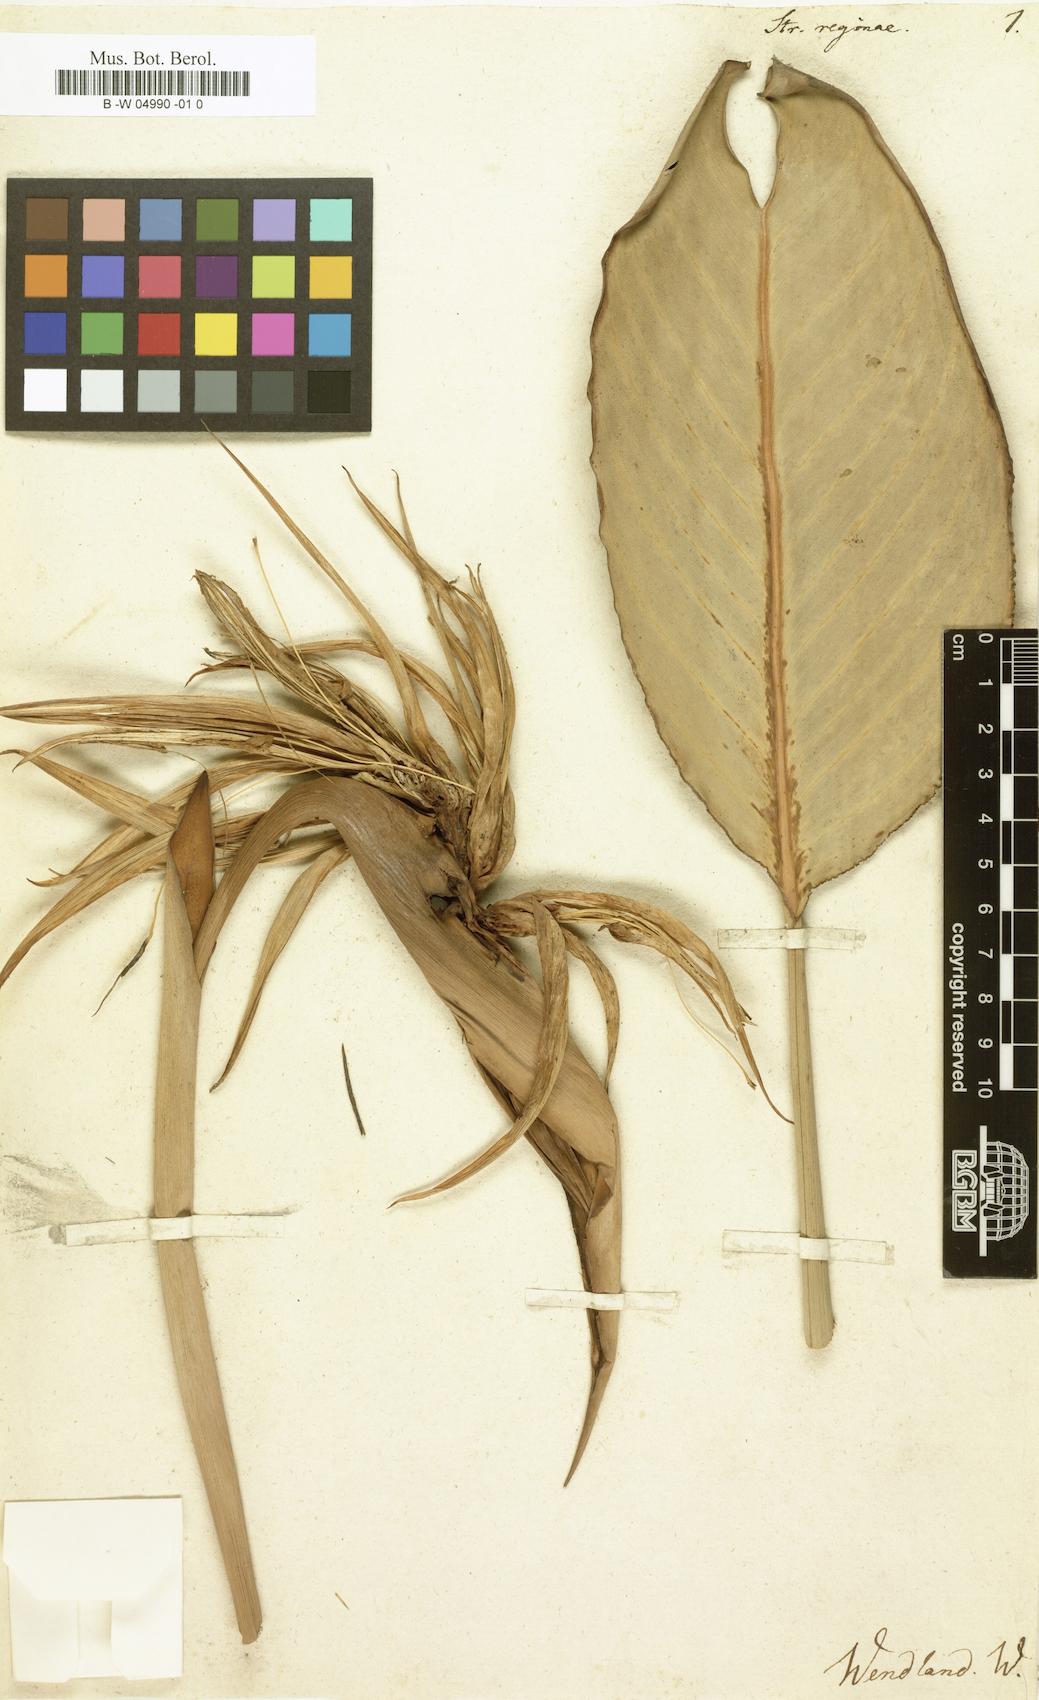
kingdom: Plantae
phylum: Tracheophyta
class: Liliopsida
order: Zingiberales
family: Strelitziaceae
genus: Strelitzia
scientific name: Strelitzia reginae
